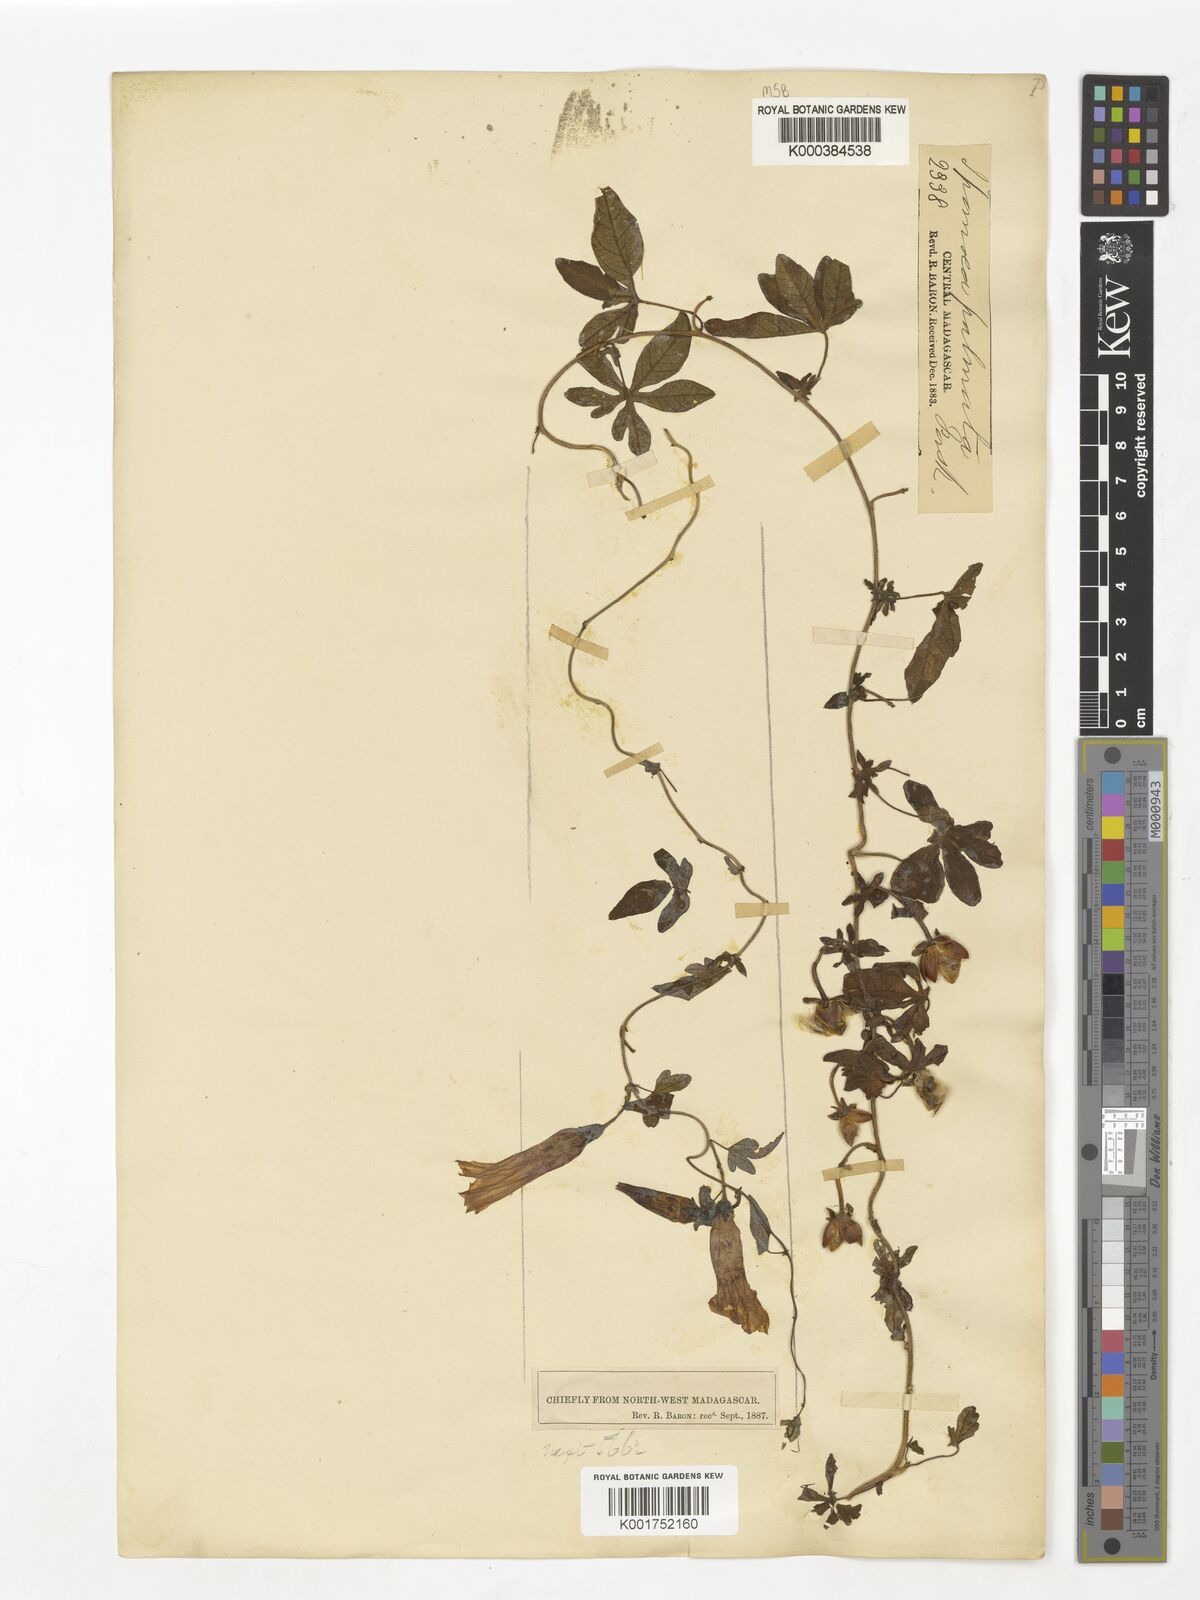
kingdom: Plantae
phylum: Tracheophyta
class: Magnoliopsida
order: Solanales
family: Convolvulaceae
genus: Ipomoea
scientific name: Ipomoea cairica
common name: Mile a minute vine
